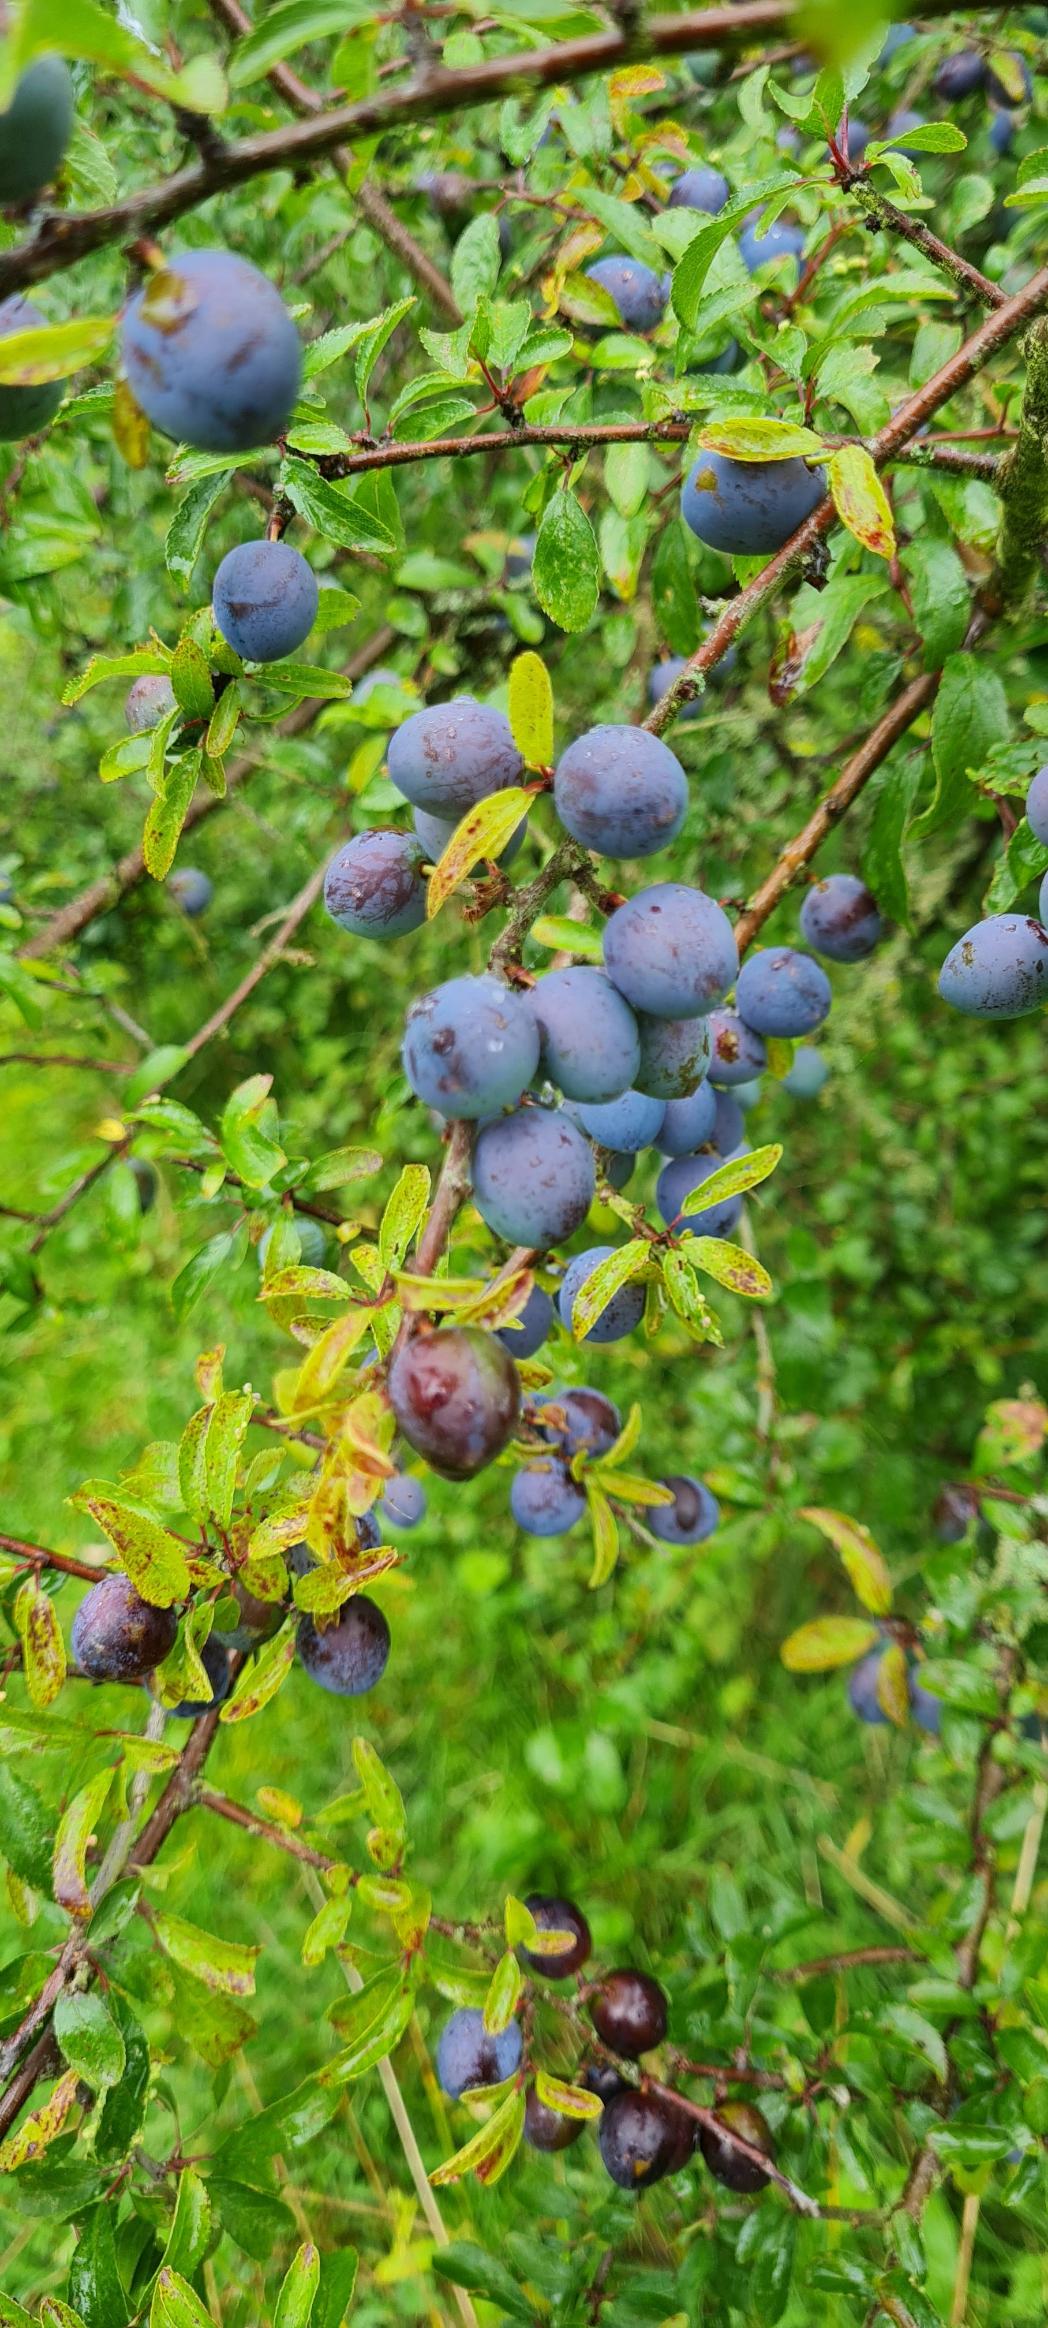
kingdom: Plantae
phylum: Tracheophyta
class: Magnoliopsida
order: Rosales
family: Rosaceae
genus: Prunus
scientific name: Prunus spinosa
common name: Slåen
